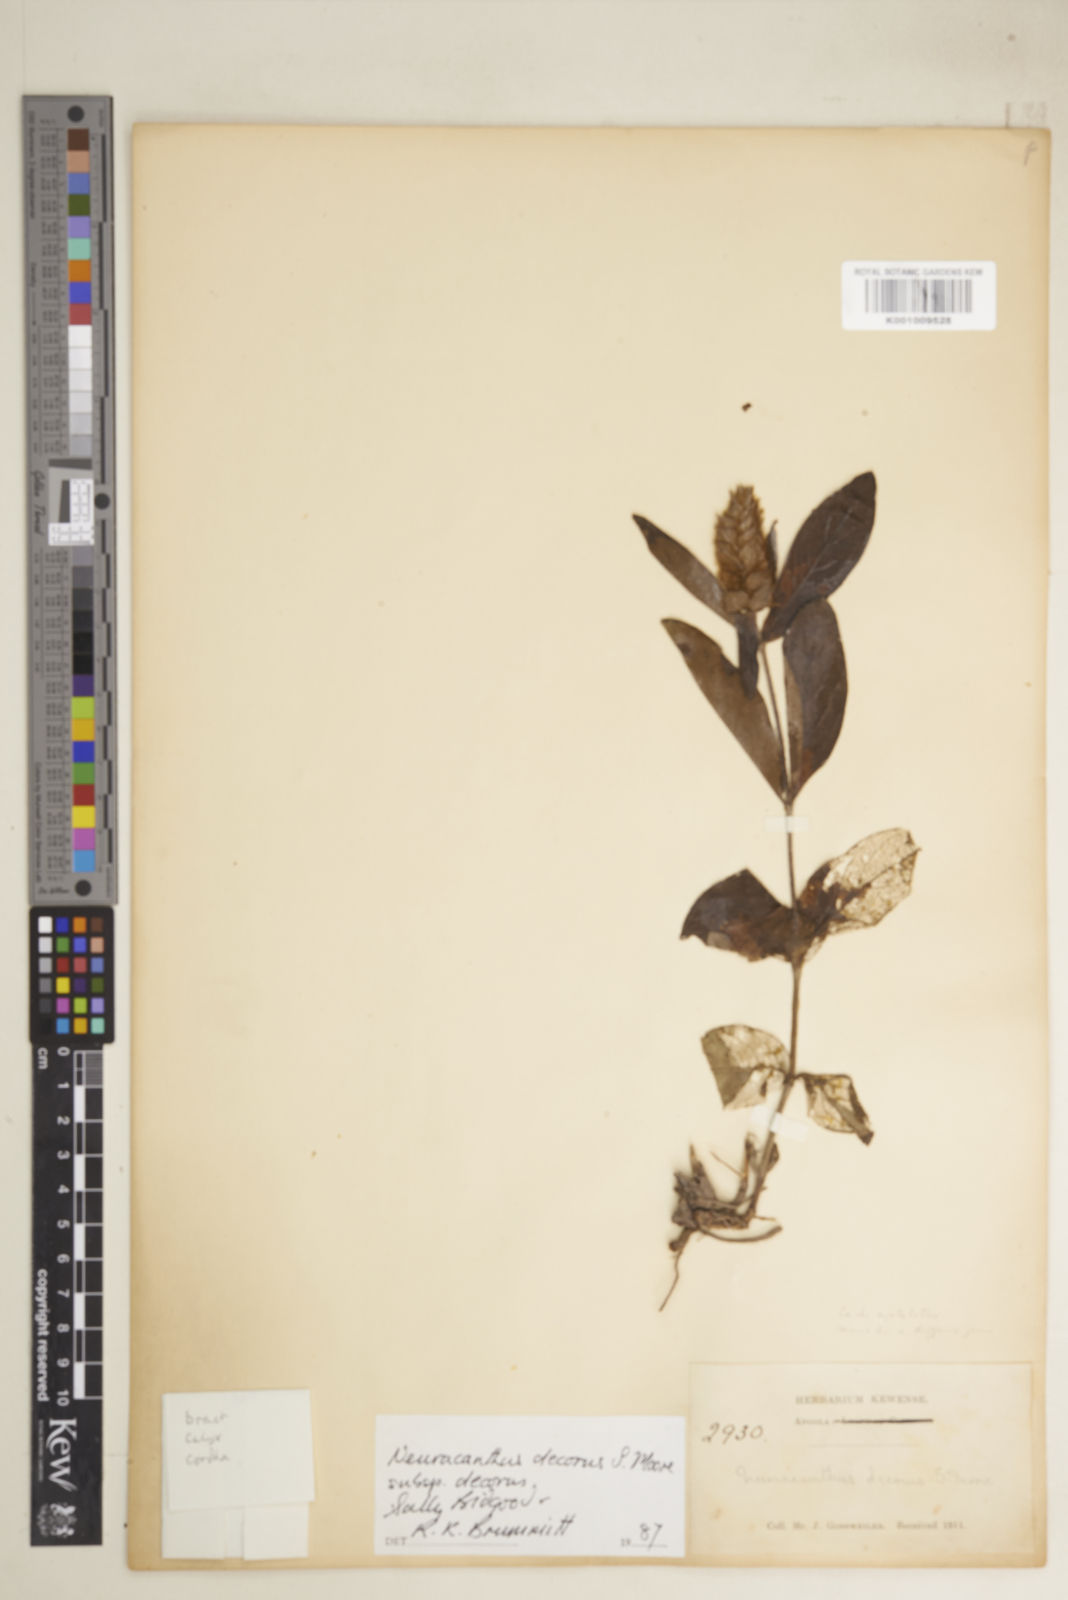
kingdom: Plantae
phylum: Tracheophyta
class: Magnoliopsida
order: Lamiales
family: Acanthaceae
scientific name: Acanthaceae
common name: Acanthaceae
